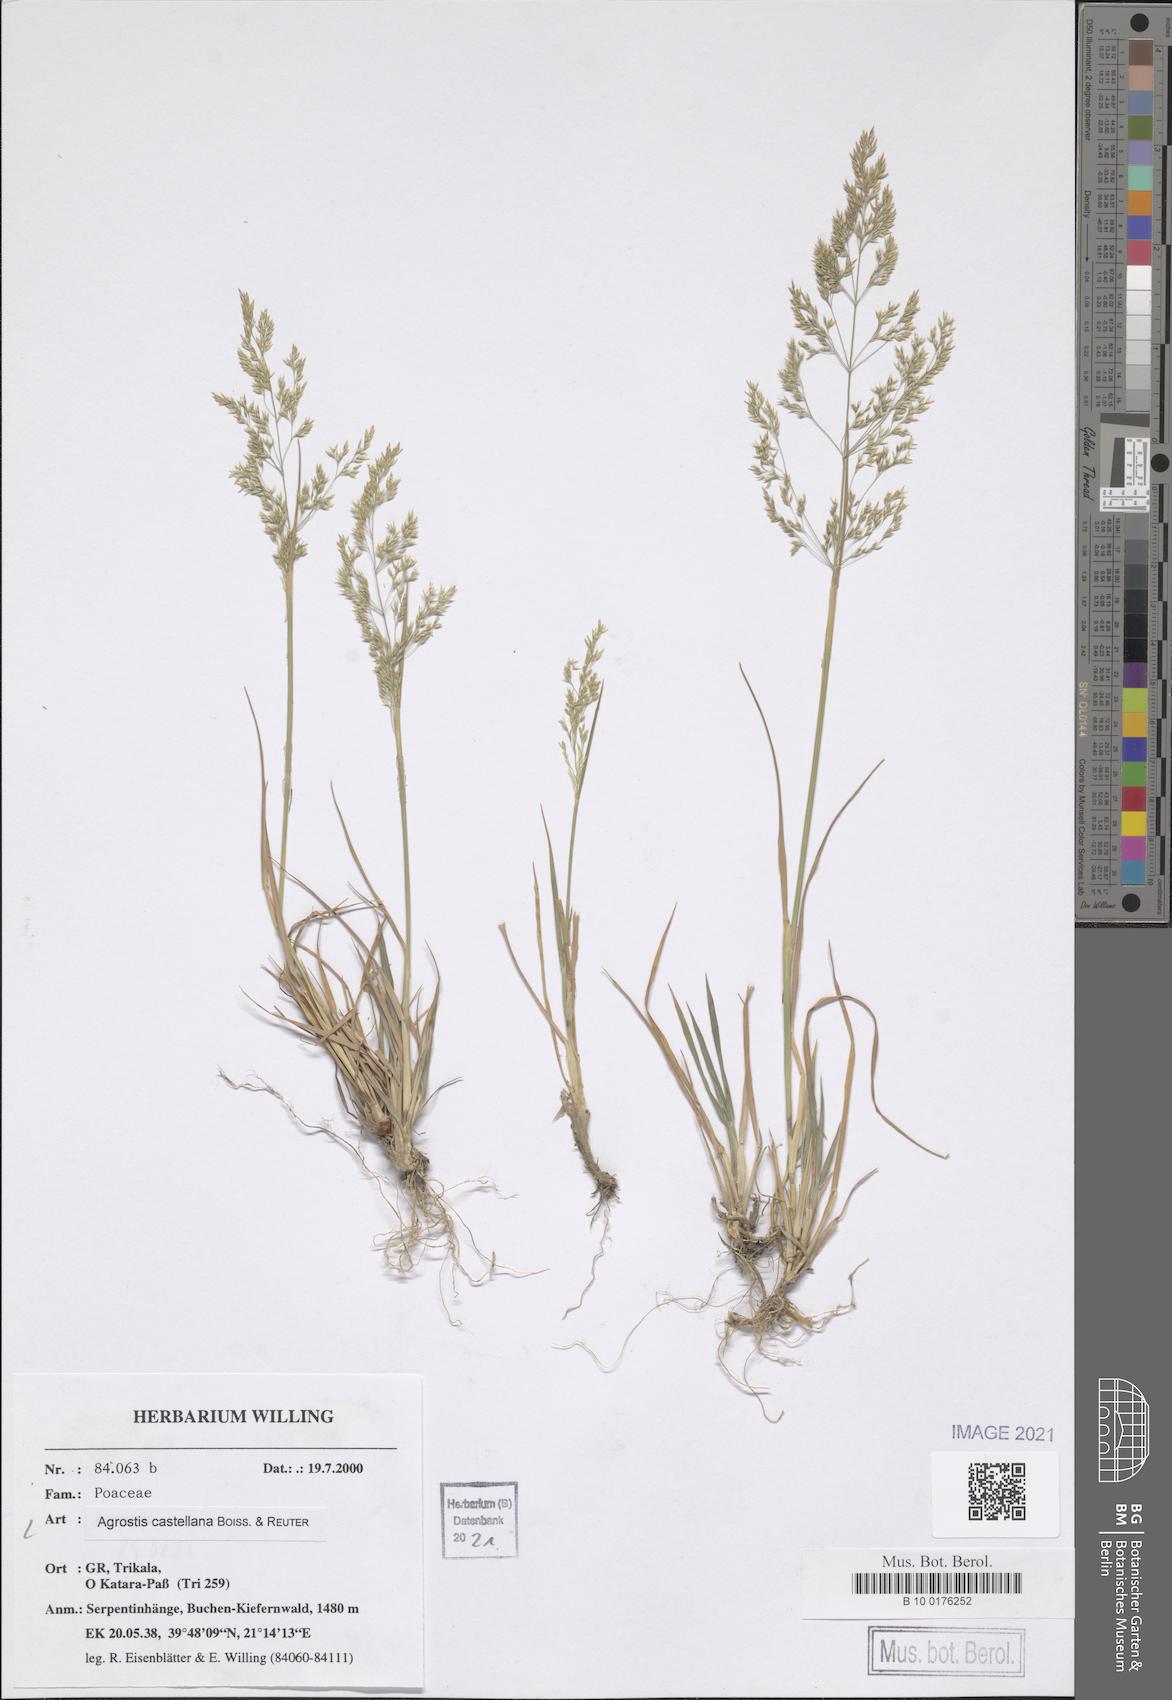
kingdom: Plantae
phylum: Tracheophyta
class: Liliopsida
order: Poales
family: Poaceae
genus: Agrostis
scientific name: Agrostis castellana
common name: Highland bent
